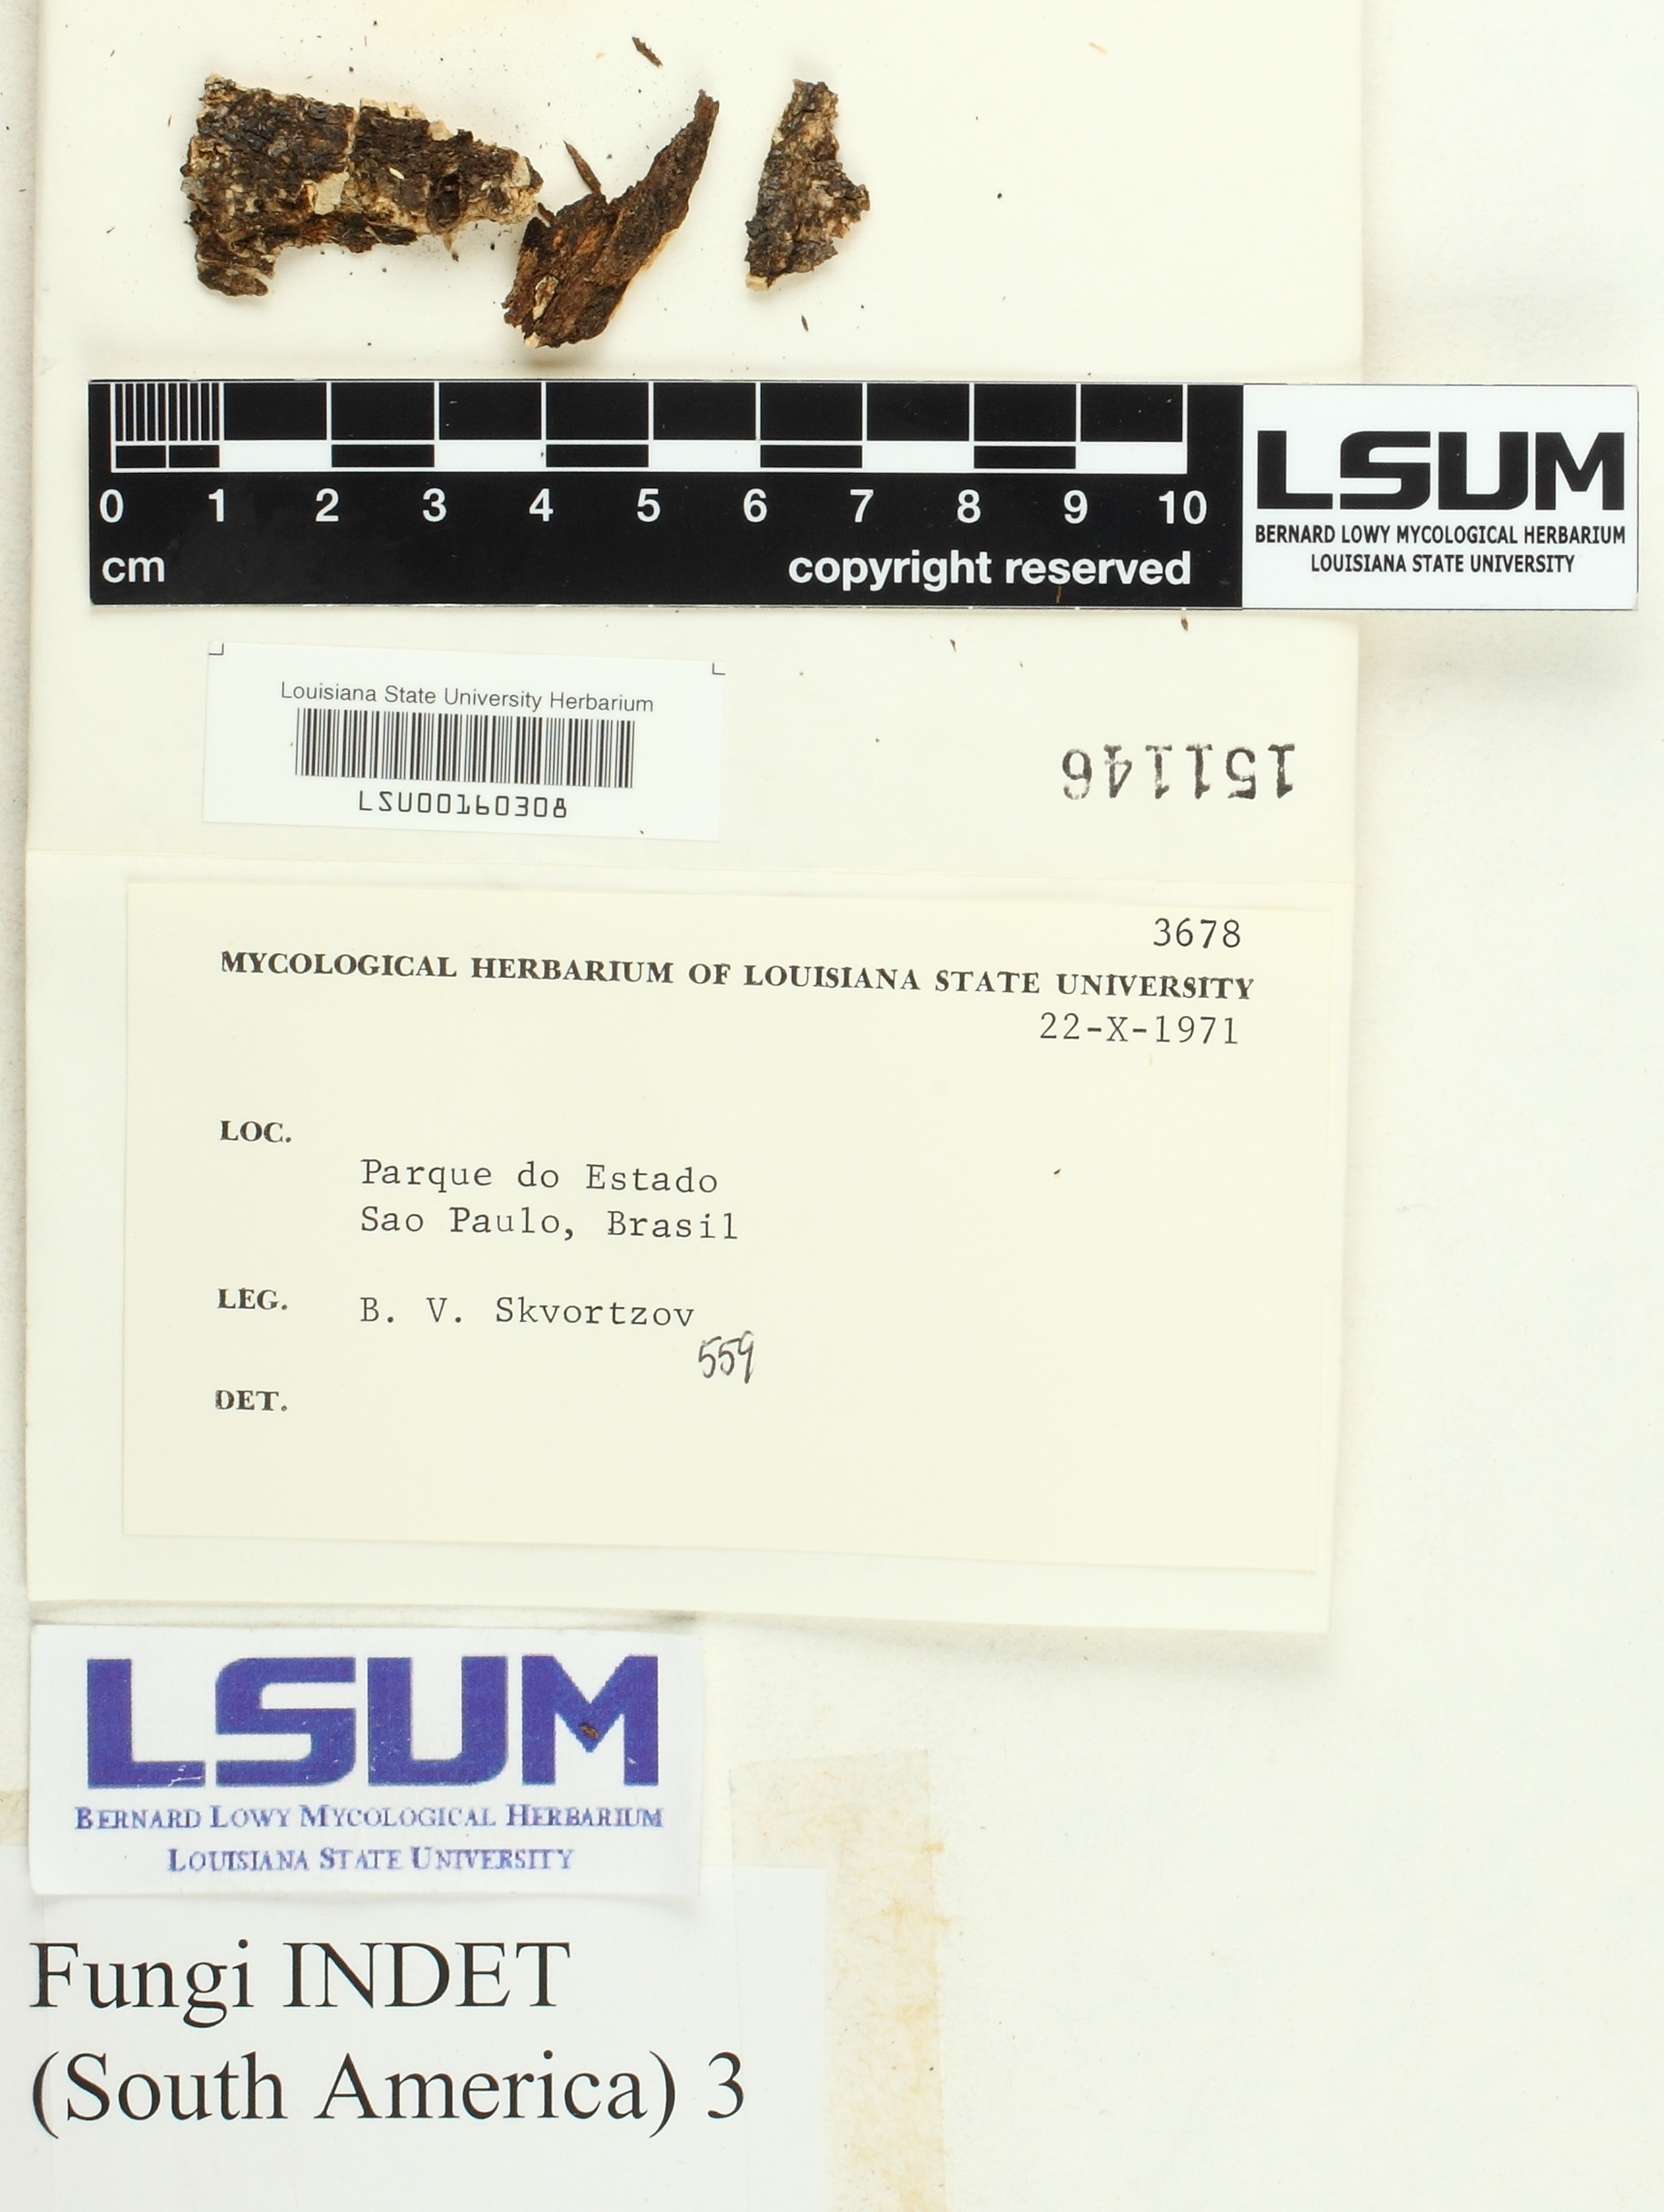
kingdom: Fungi
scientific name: Fungi
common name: Fungi
